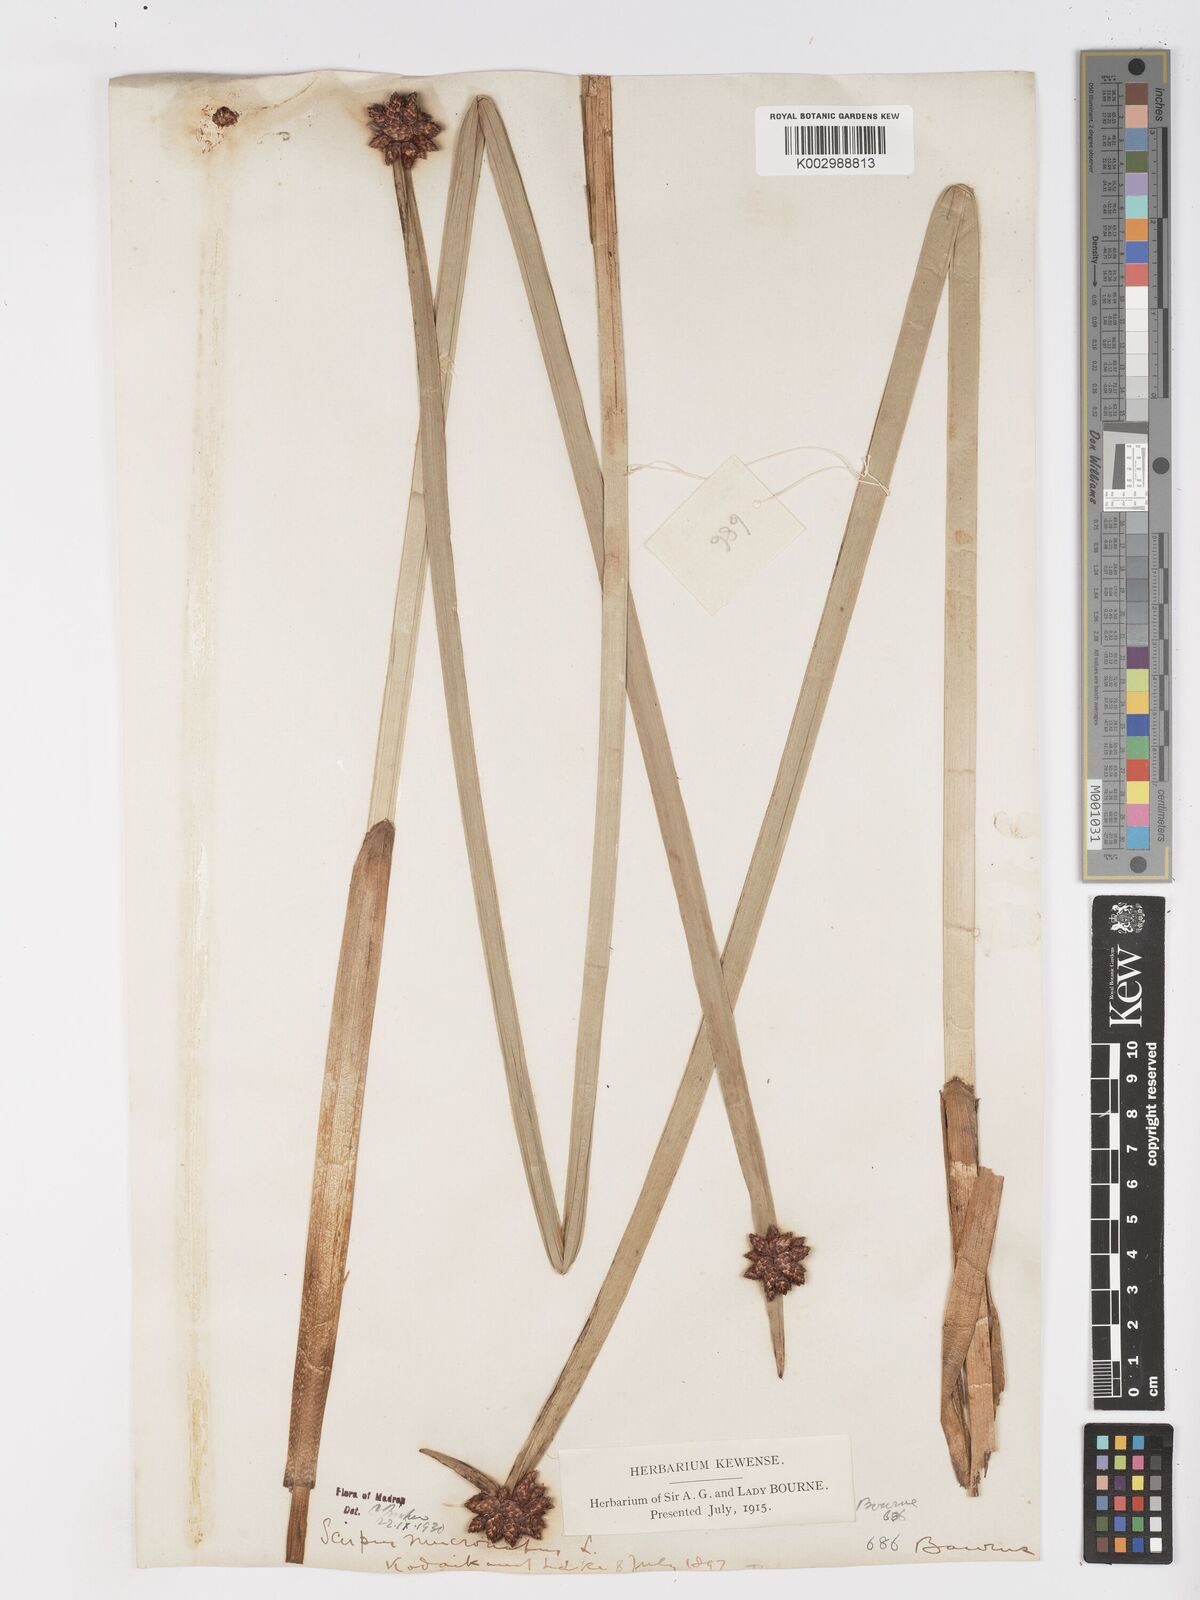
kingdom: Plantae
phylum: Tracheophyta
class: Liliopsida
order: Poales
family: Cyperaceae
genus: Schoenoplectiella
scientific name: Schoenoplectiella mucronata
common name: Bog bulrush
